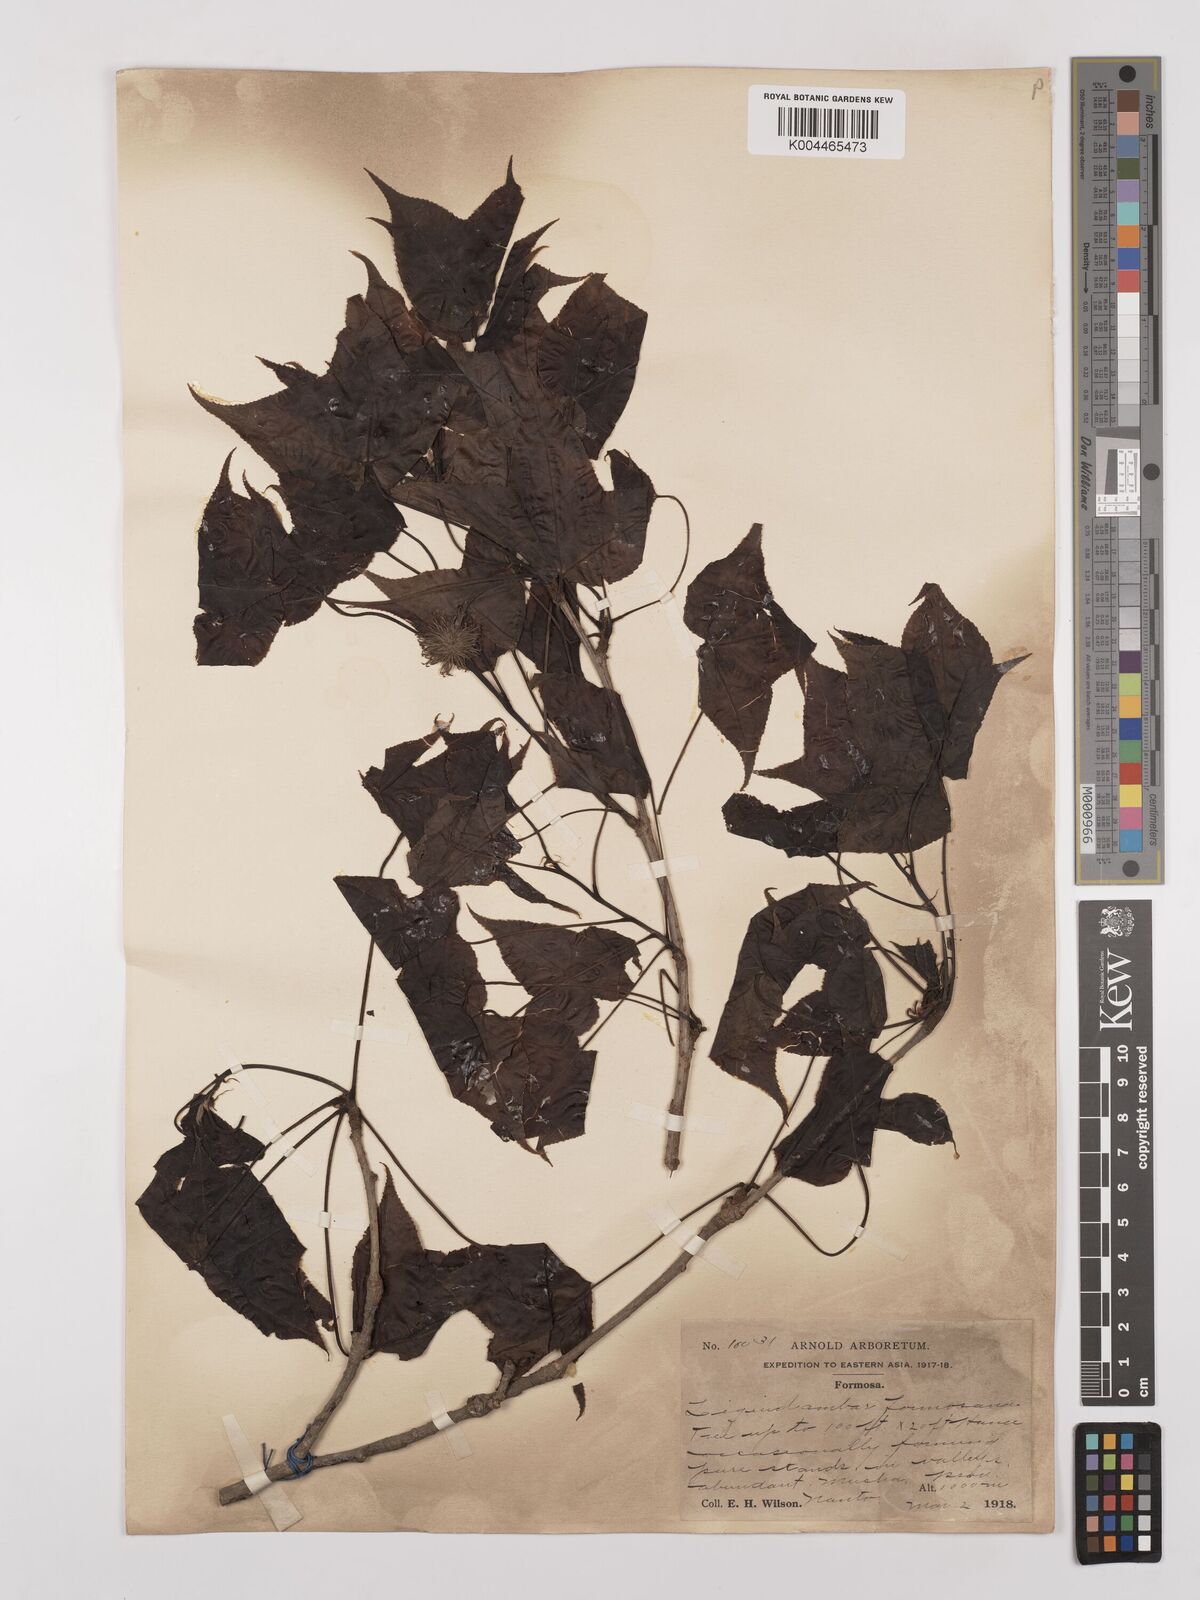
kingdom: Plantae
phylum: Tracheophyta
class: Magnoliopsida
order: Saxifragales
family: Altingiaceae
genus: Liquidambar
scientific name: Liquidambar formosana
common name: Chinese sweet gum
